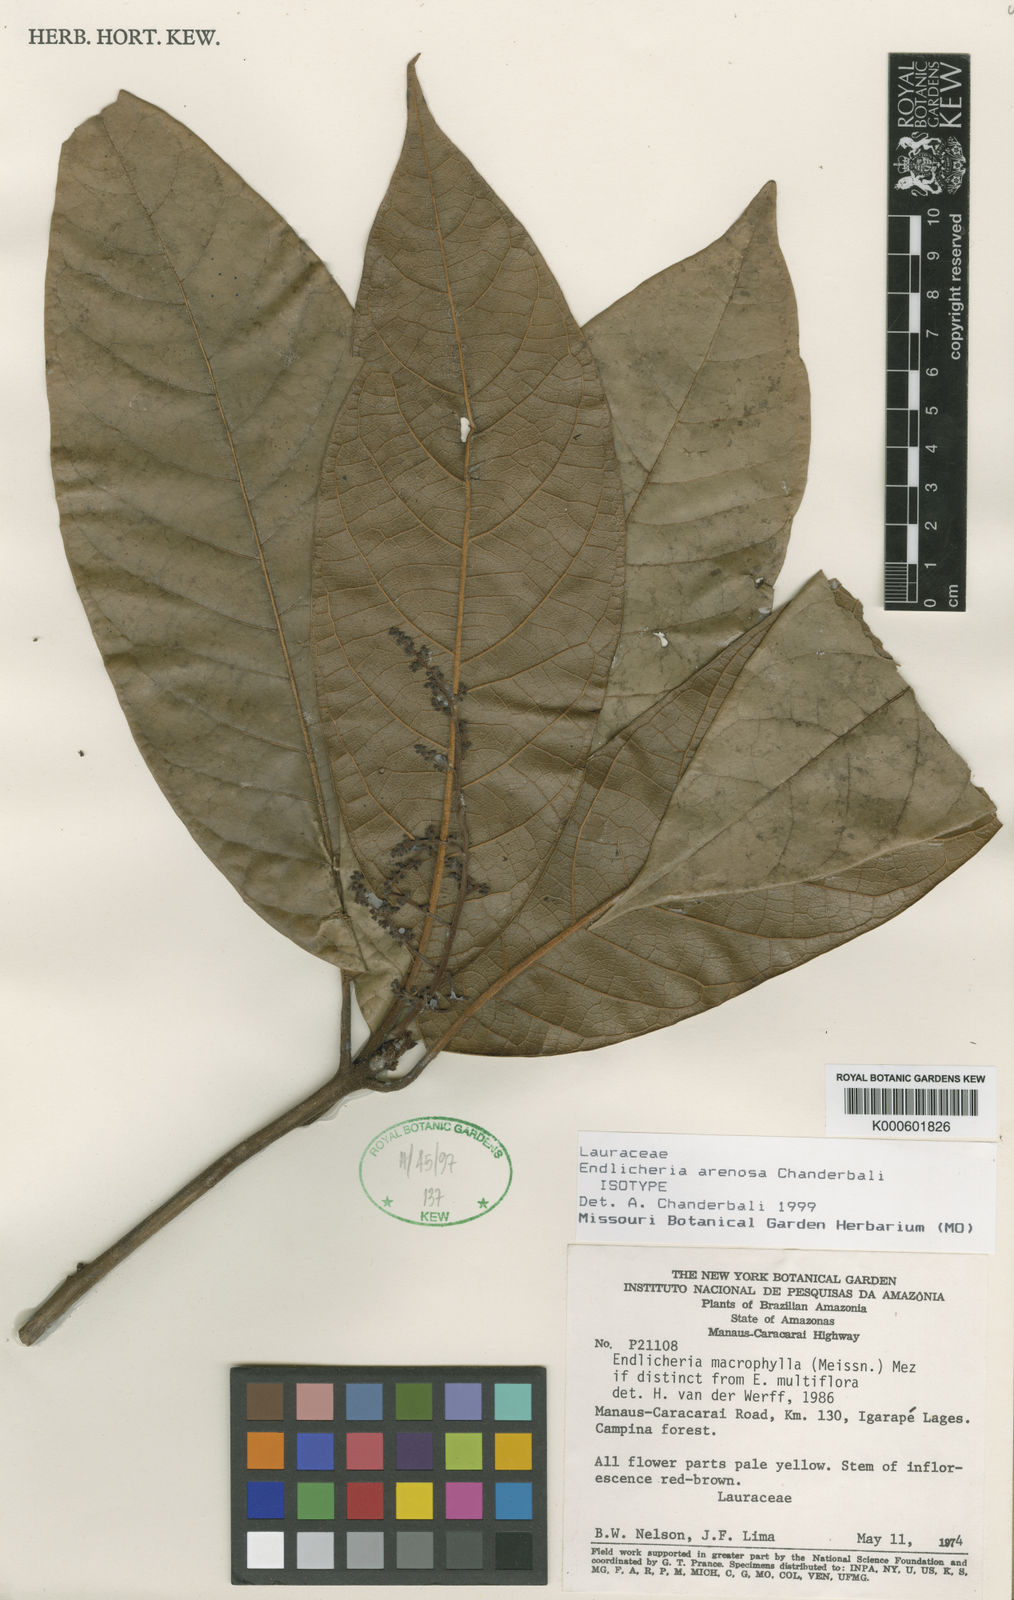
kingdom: Plantae
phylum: Tracheophyta
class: Magnoliopsida
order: Laurales
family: Lauraceae
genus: Endlicheria
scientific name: Endlicheria arenosa
